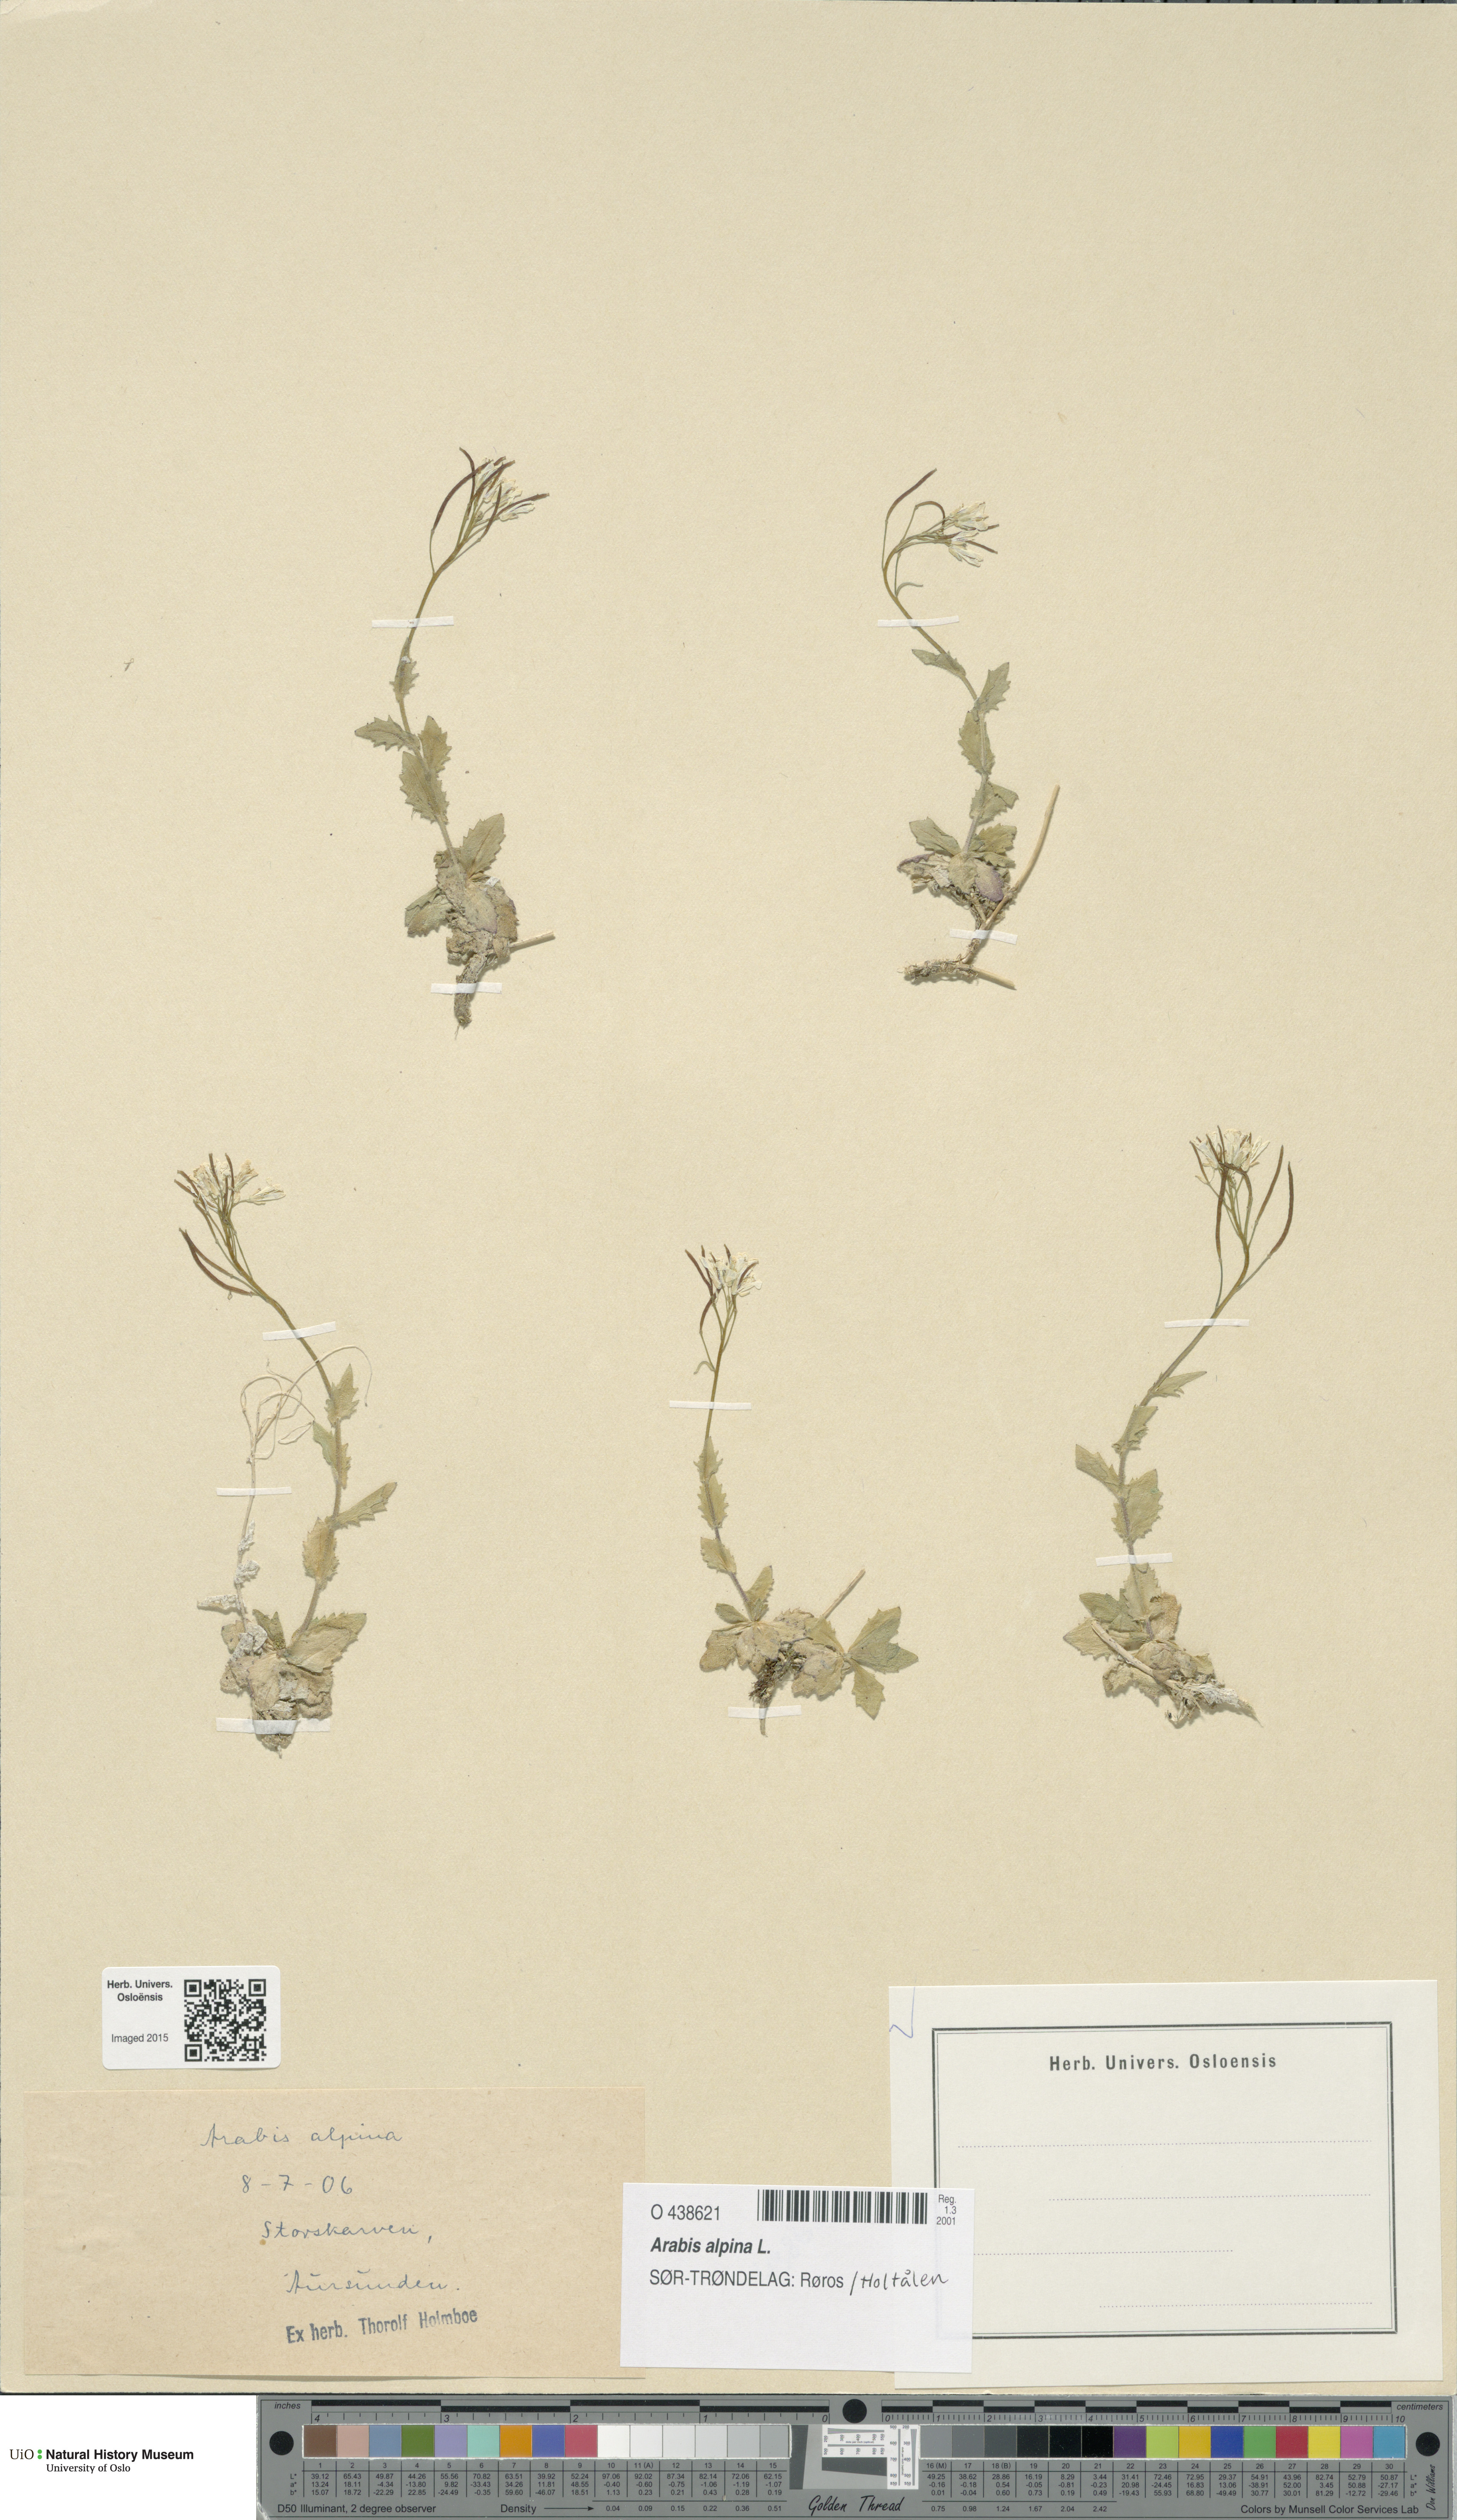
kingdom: Plantae
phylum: Tracheophyta
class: Magnoliopsida
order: Brassicales
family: Brassicaceae
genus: Arabis
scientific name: Arabis alpina
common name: Alpine rock-cress
